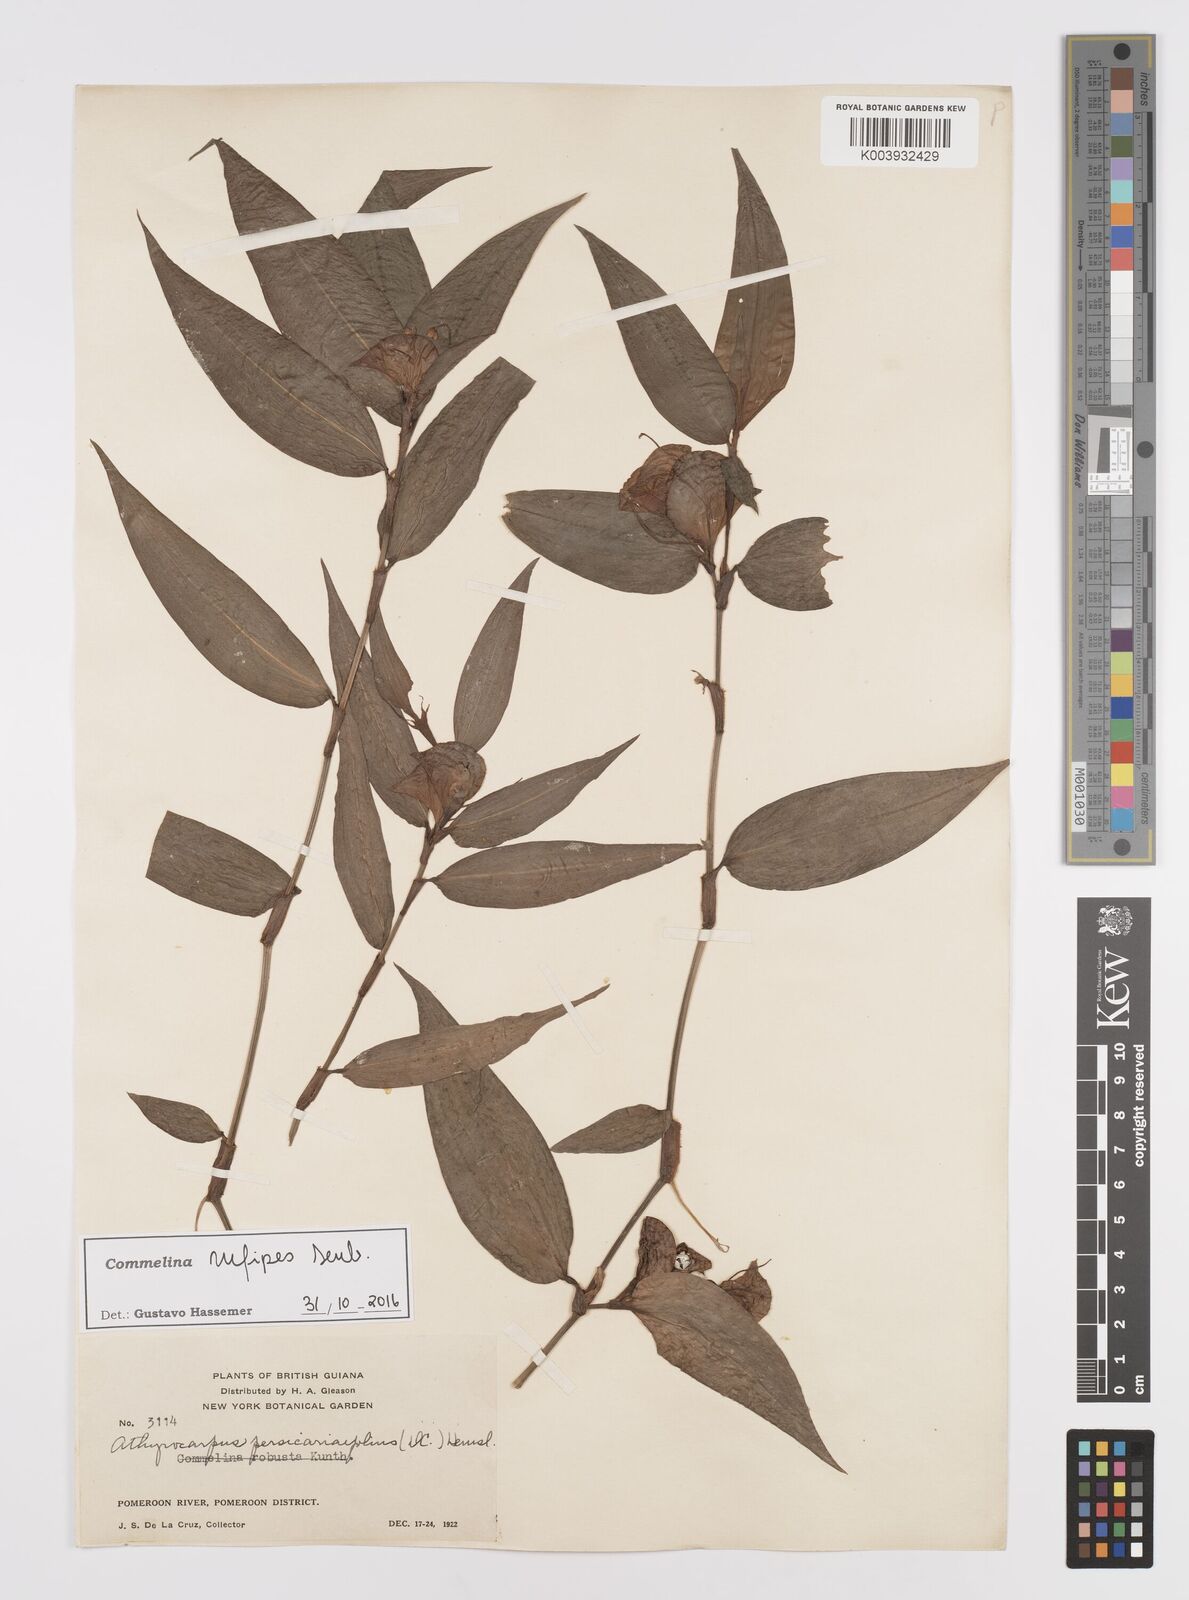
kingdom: Plantae
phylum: Tracheophyta
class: Liliopsida
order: Commelinales
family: Commelinaceae
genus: Commelina
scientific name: Commelina rufipes
